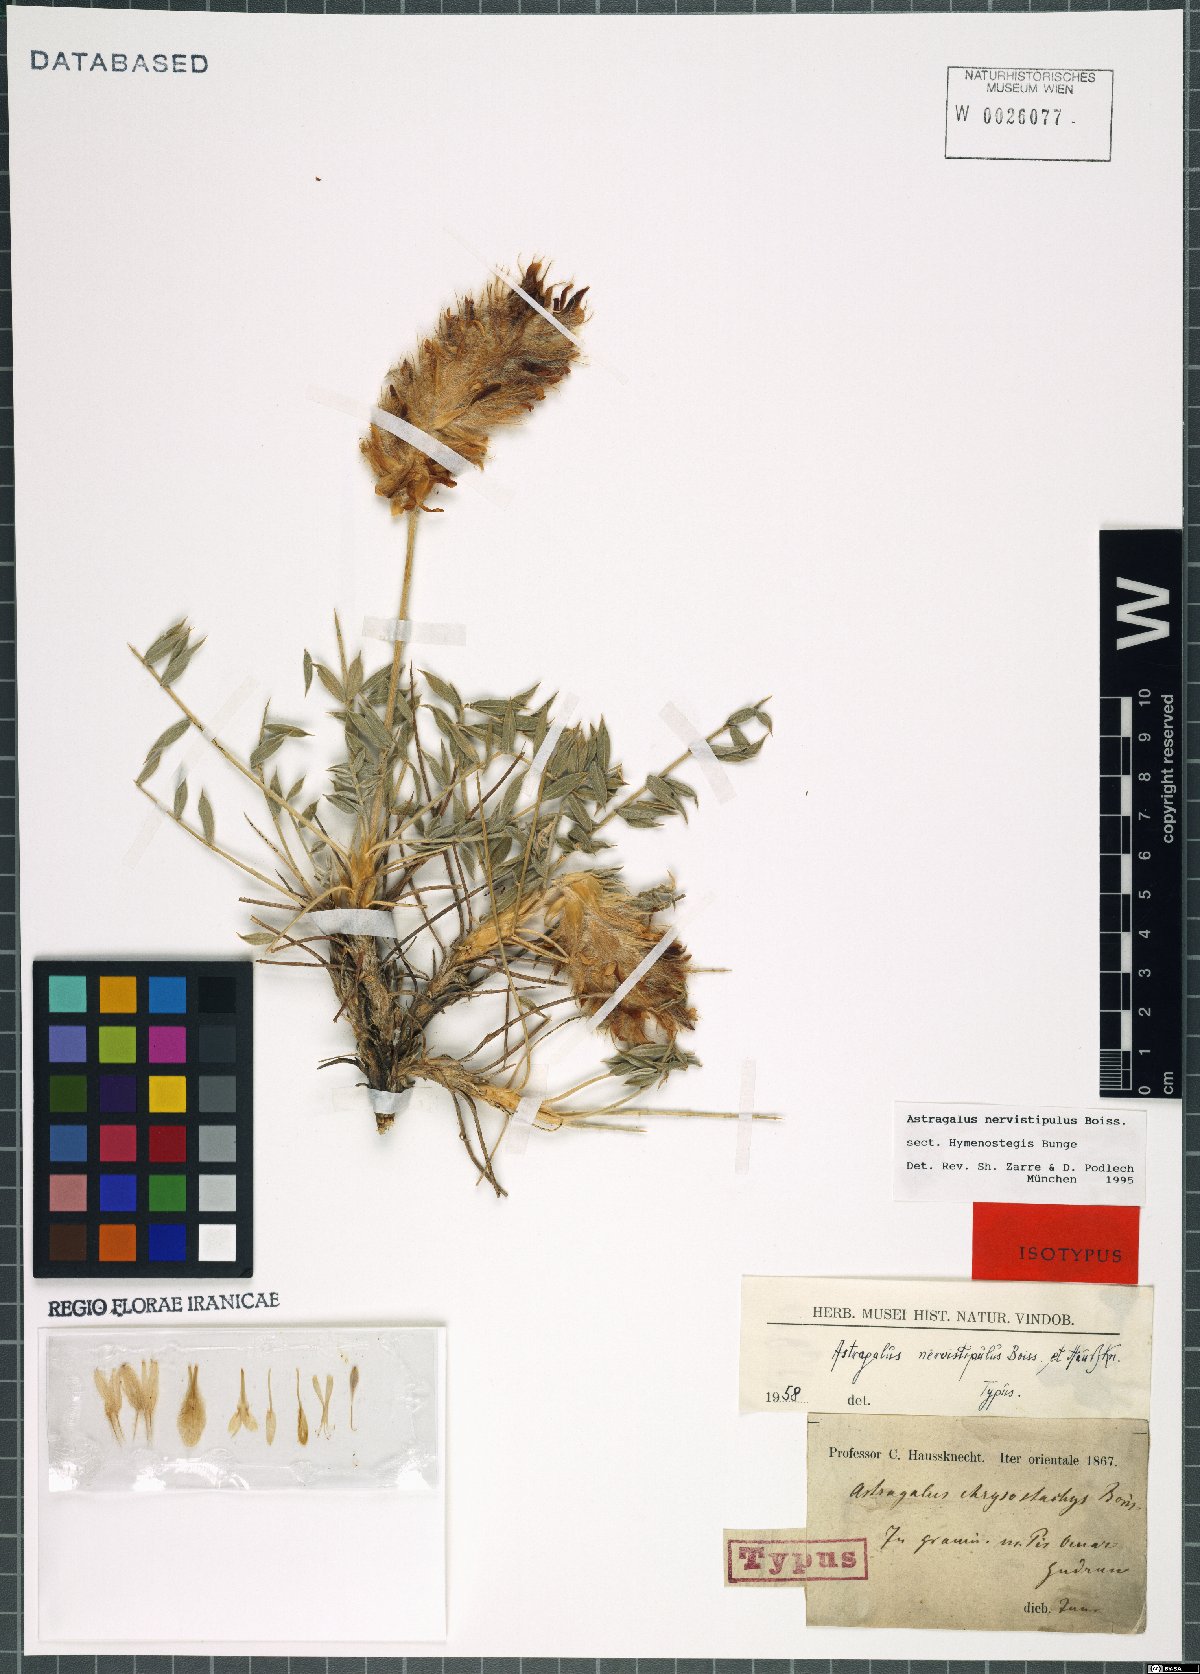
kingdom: Plantae
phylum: Tracheophyta
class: Magnoliopsida
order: Fabales
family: Fabaceae
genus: Astragalus
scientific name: Astragalus nervistipulus
